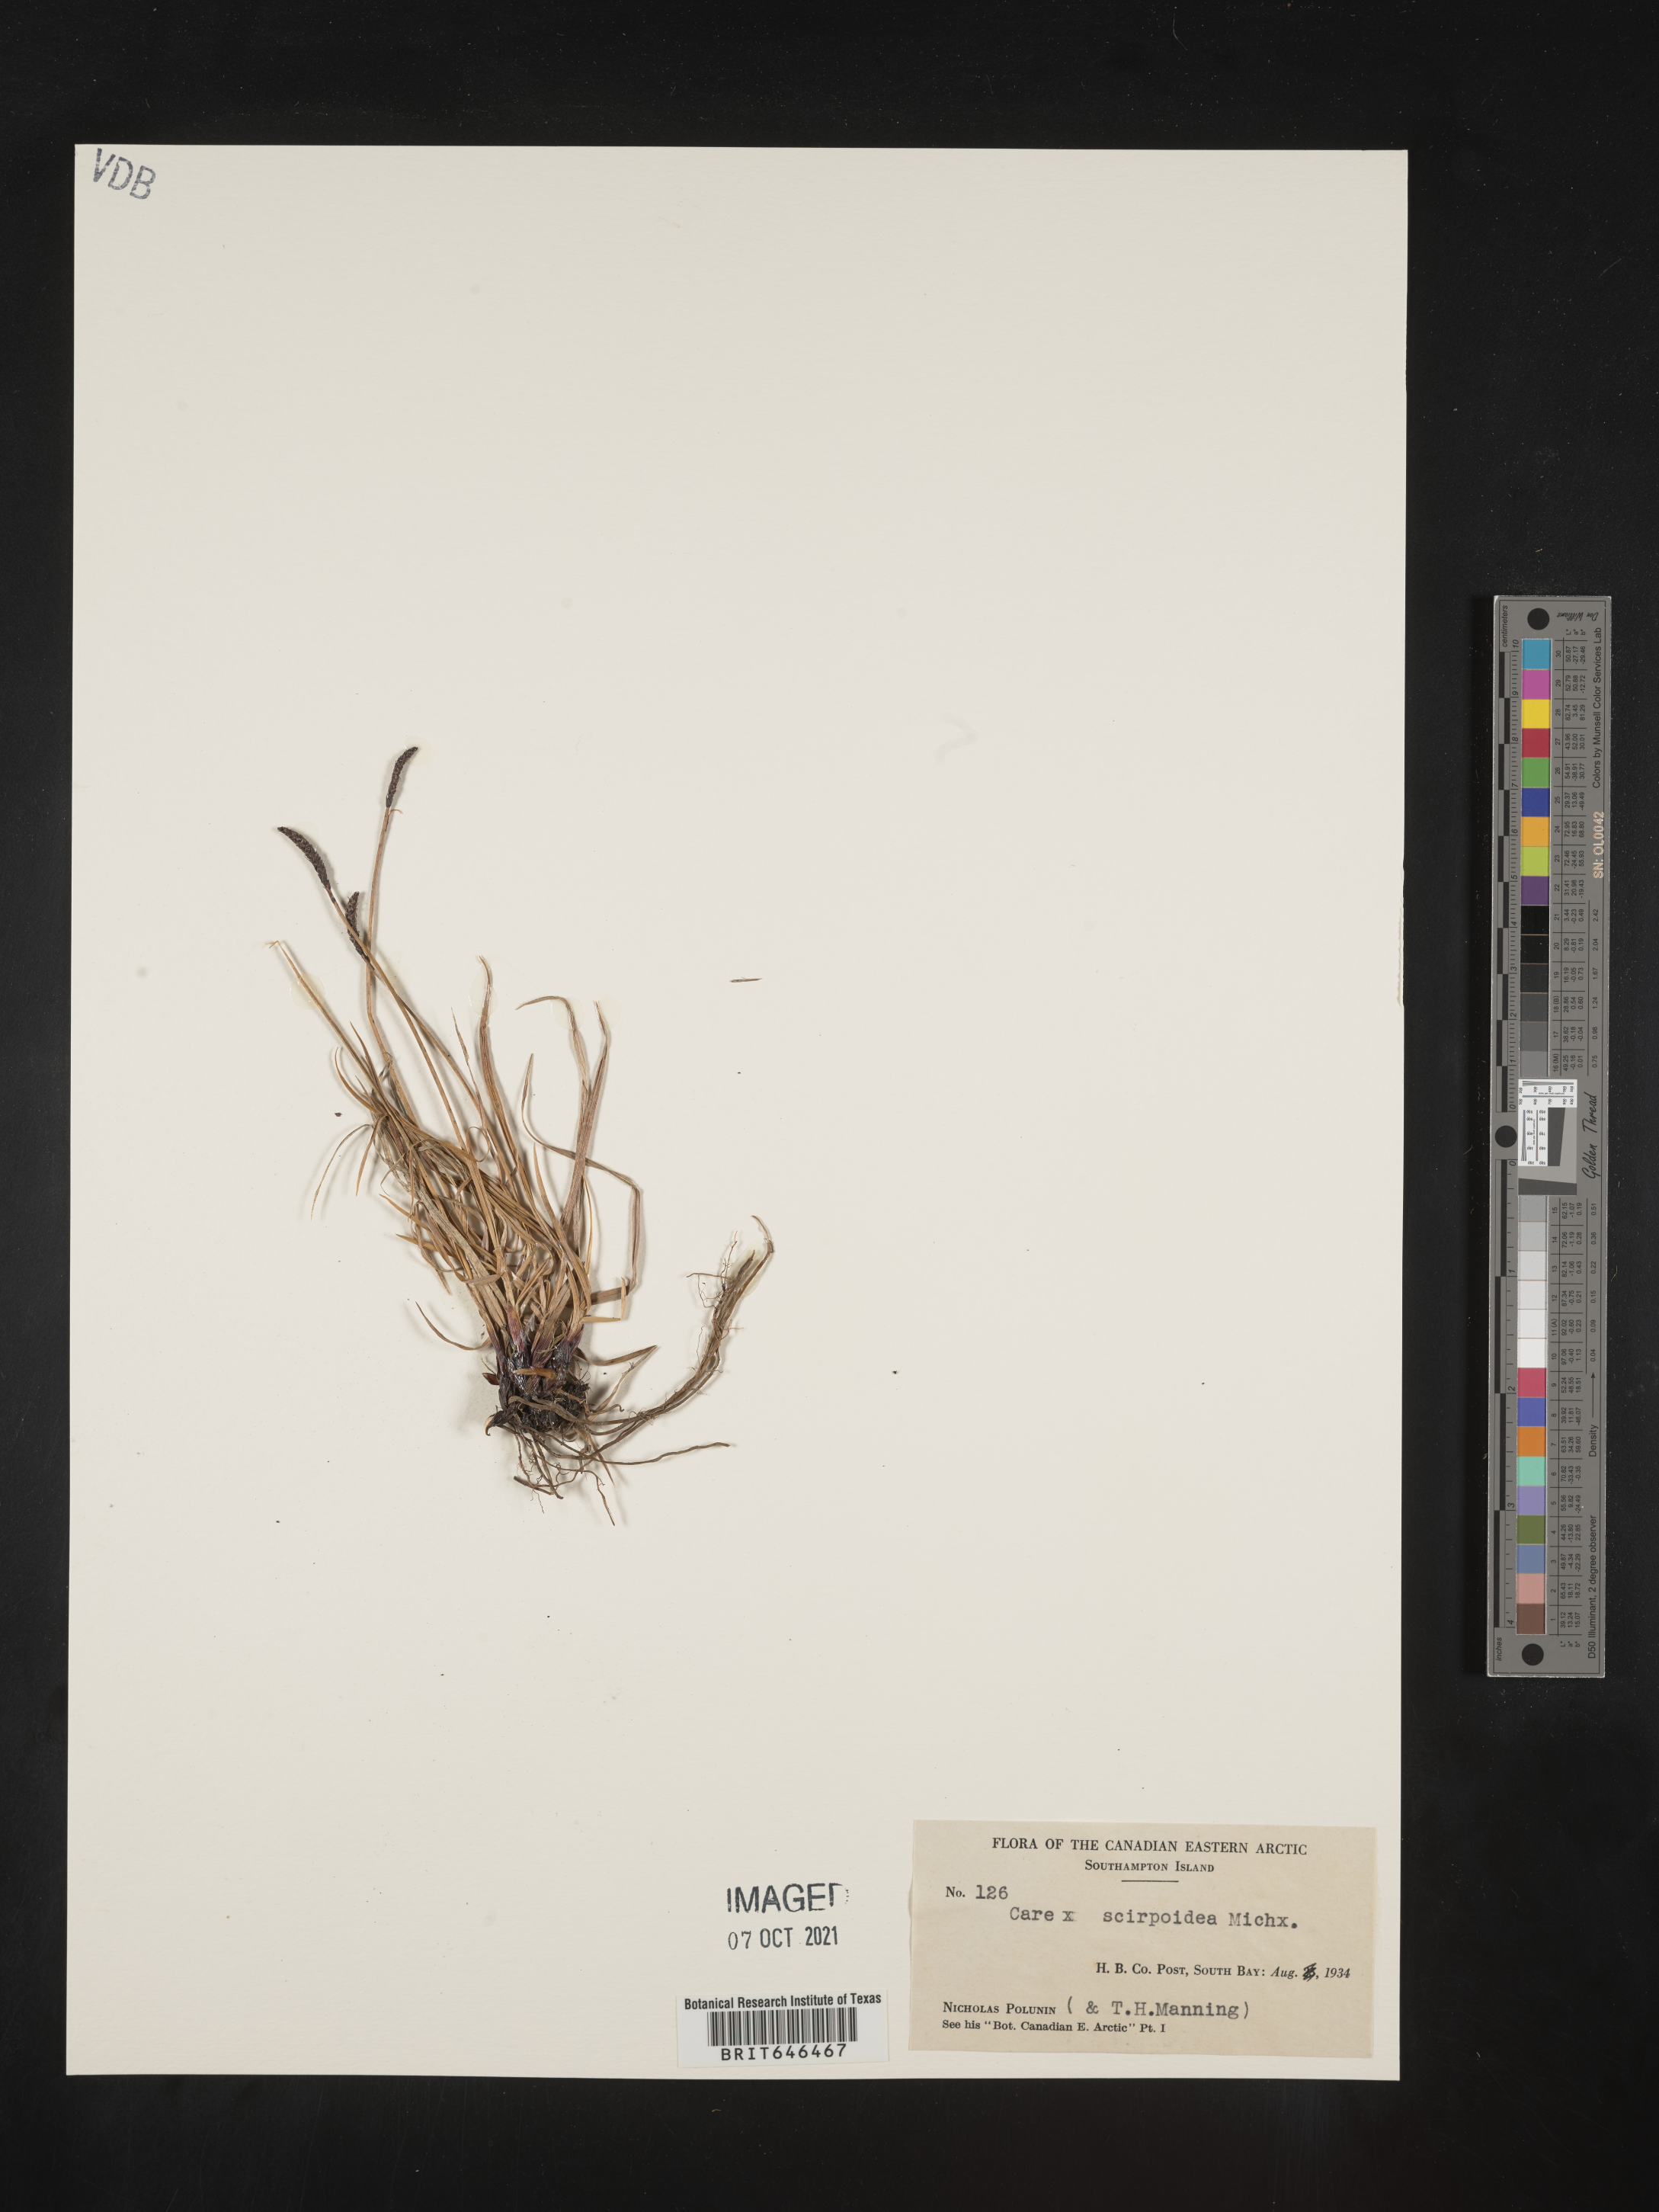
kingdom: Plantae
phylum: Tracheophyta
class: Liliopsida
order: Poales
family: Cyperaceae
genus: Carex
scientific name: Carex scirpoidea
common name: Canada single-spike sedge
